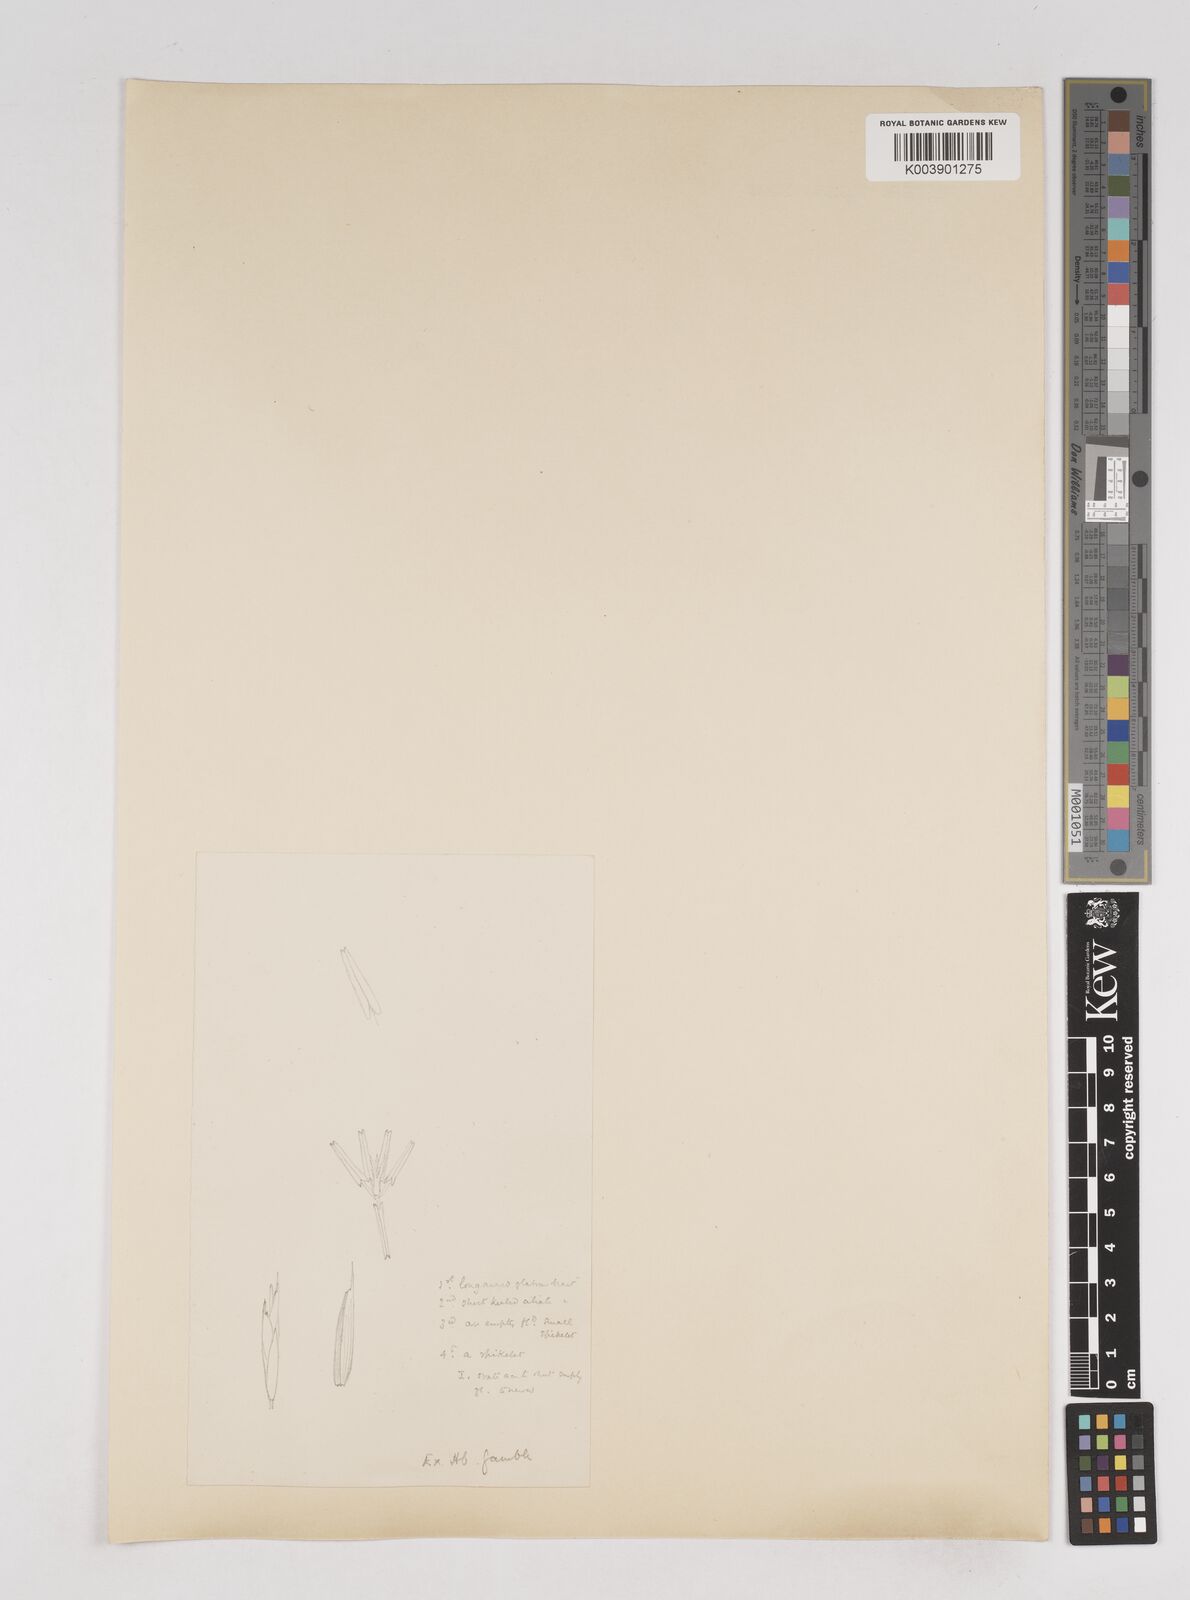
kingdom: Plantae
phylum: Tracheophyta
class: Liliopsida
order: Poales
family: Poaceae
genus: Melocanna
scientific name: Melocanna baccifera
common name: Berry bamboo
